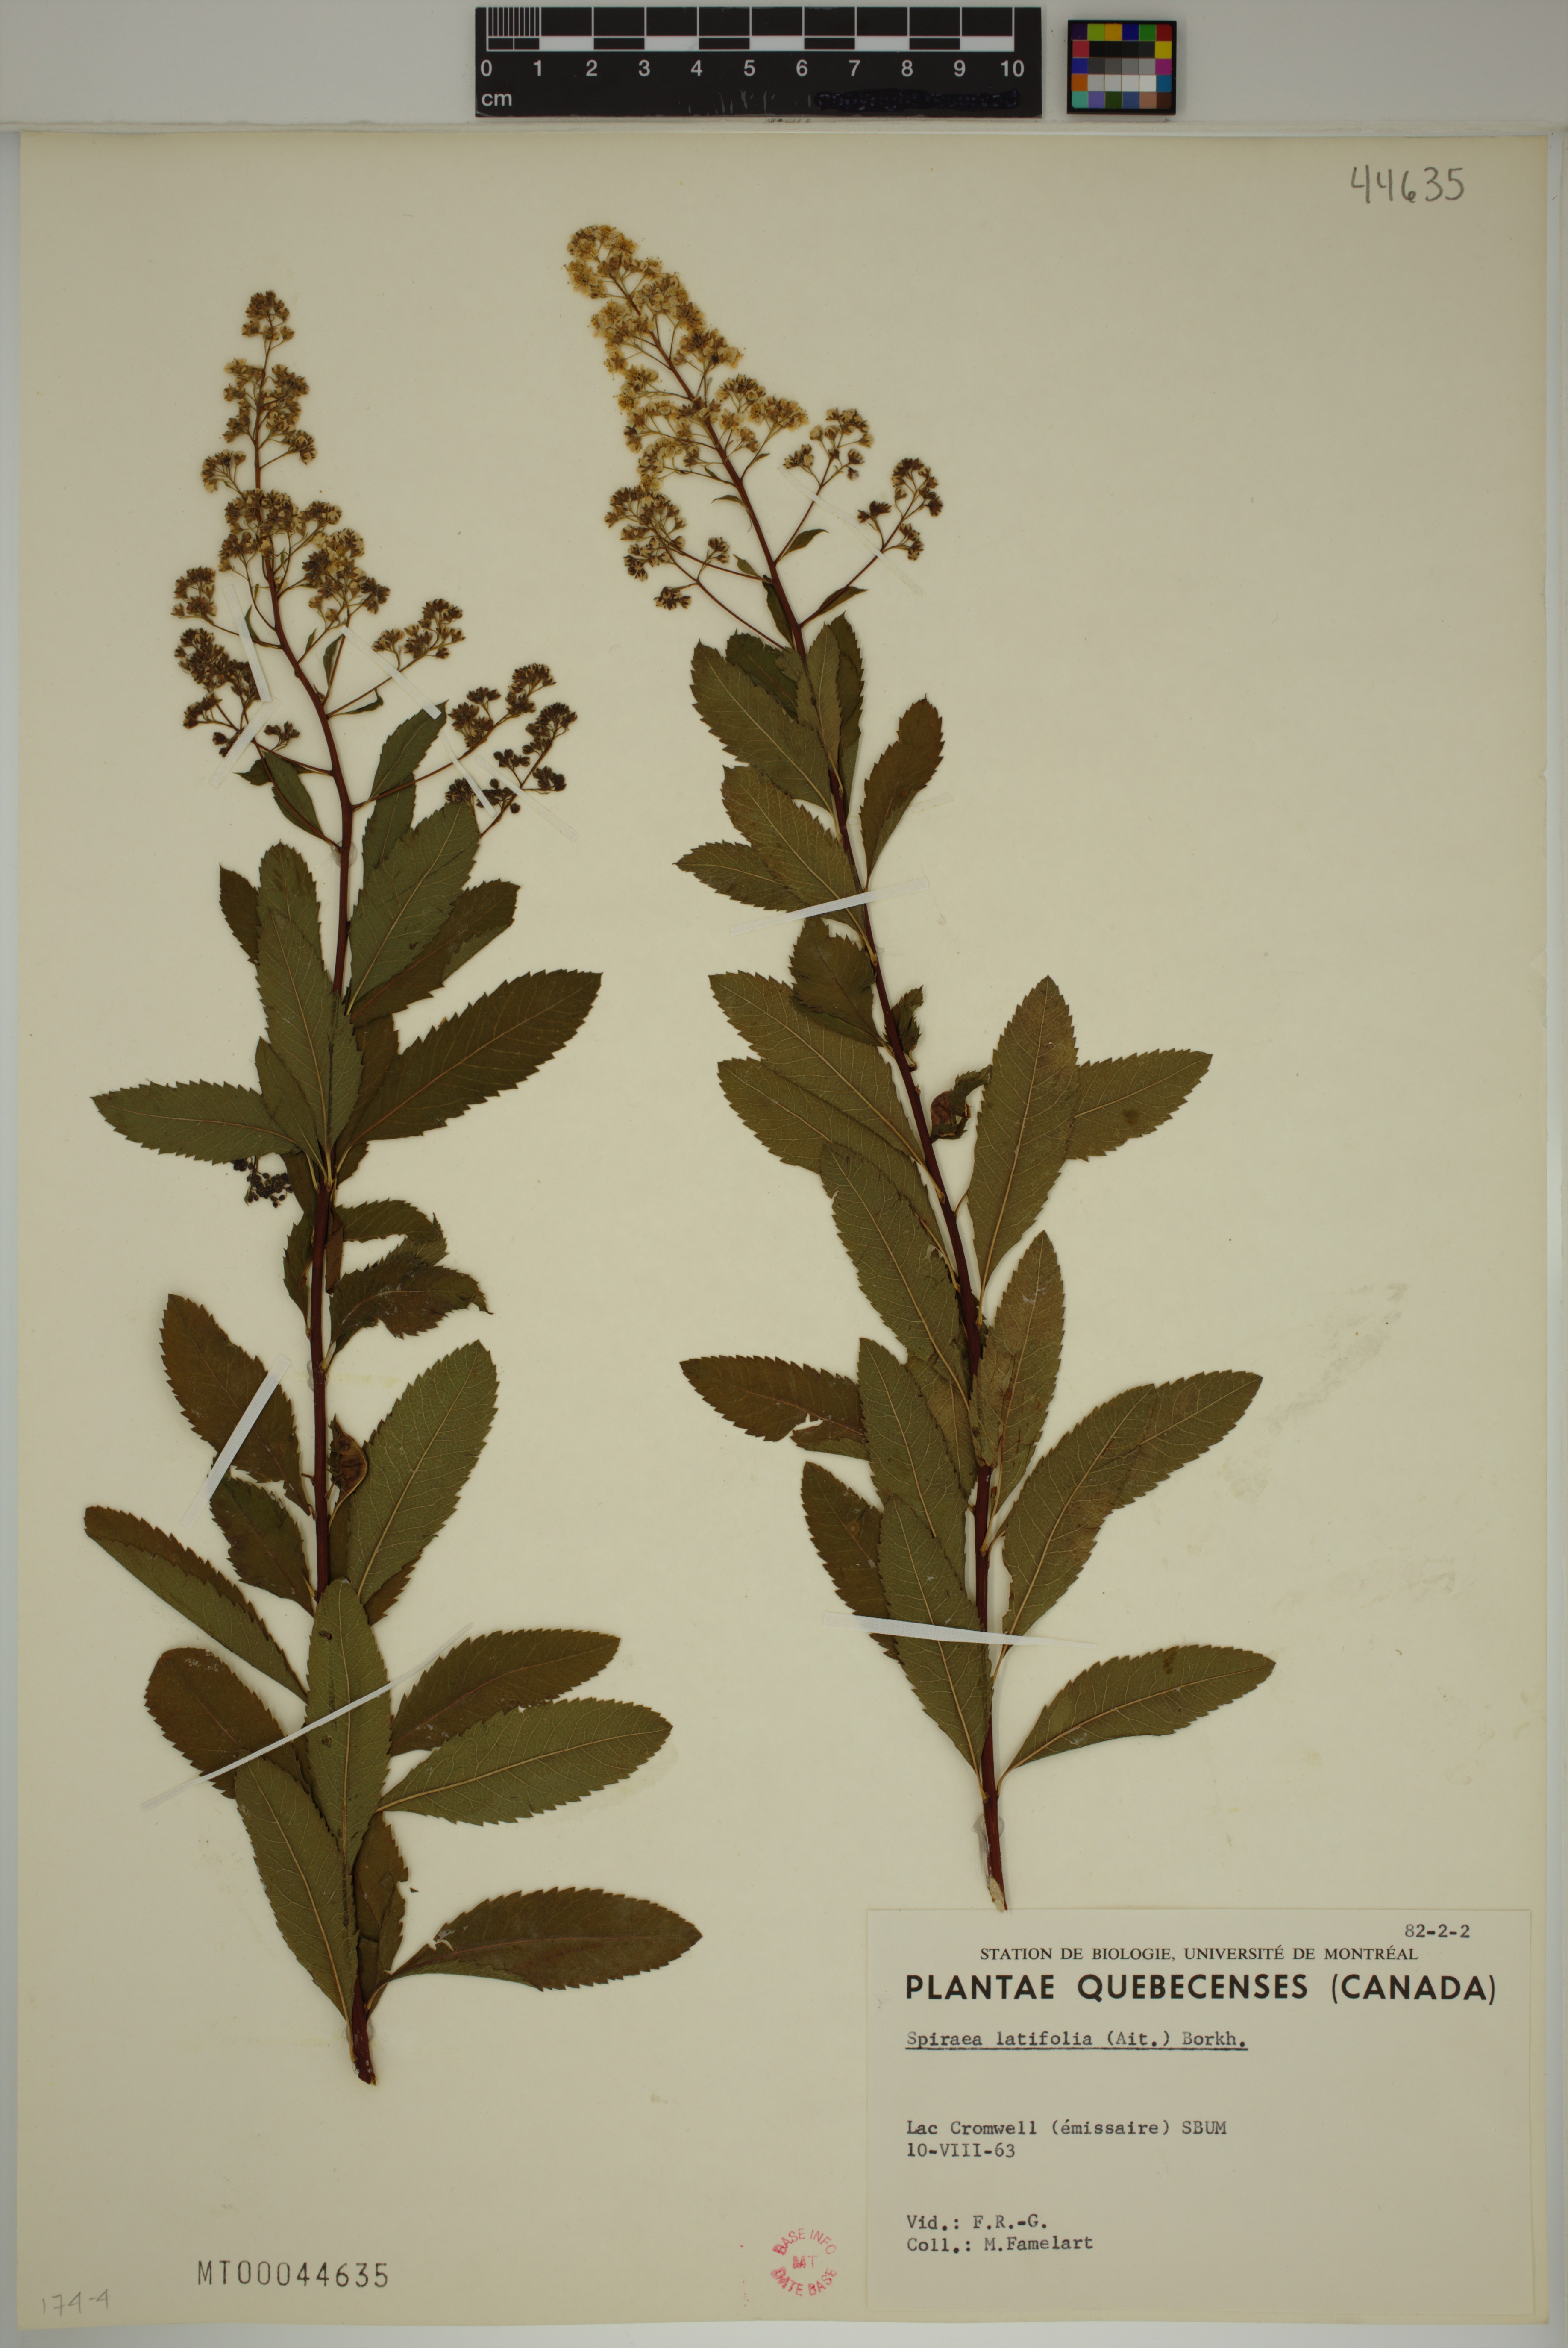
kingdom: Plantae
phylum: Tracheophyta
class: Magnoliopsida
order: Rosales
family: Rosaceae
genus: Spiraea
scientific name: Spiraea alba
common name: Pale bridewort
